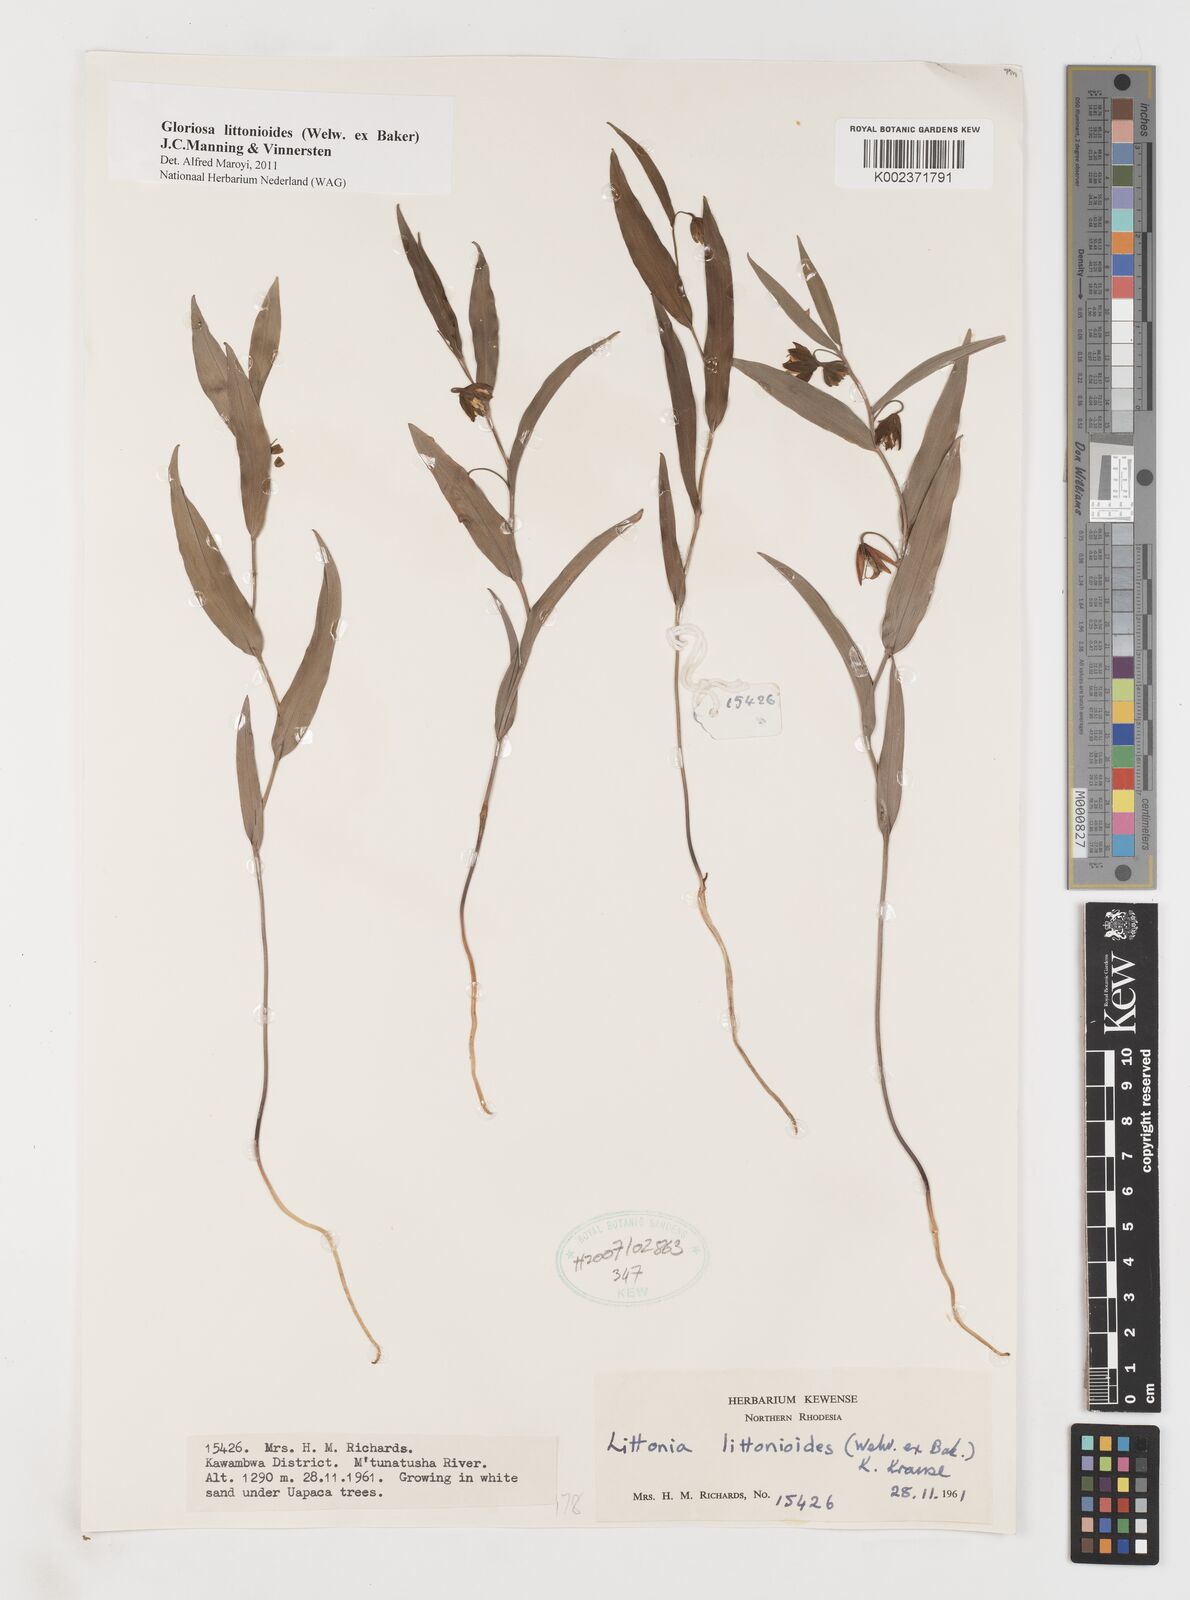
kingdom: Plantae
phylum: Tracheophyta
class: Liliopsida
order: Liliales
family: Colchicaceae
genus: Gloriosa
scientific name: Gloriosa littonioides
